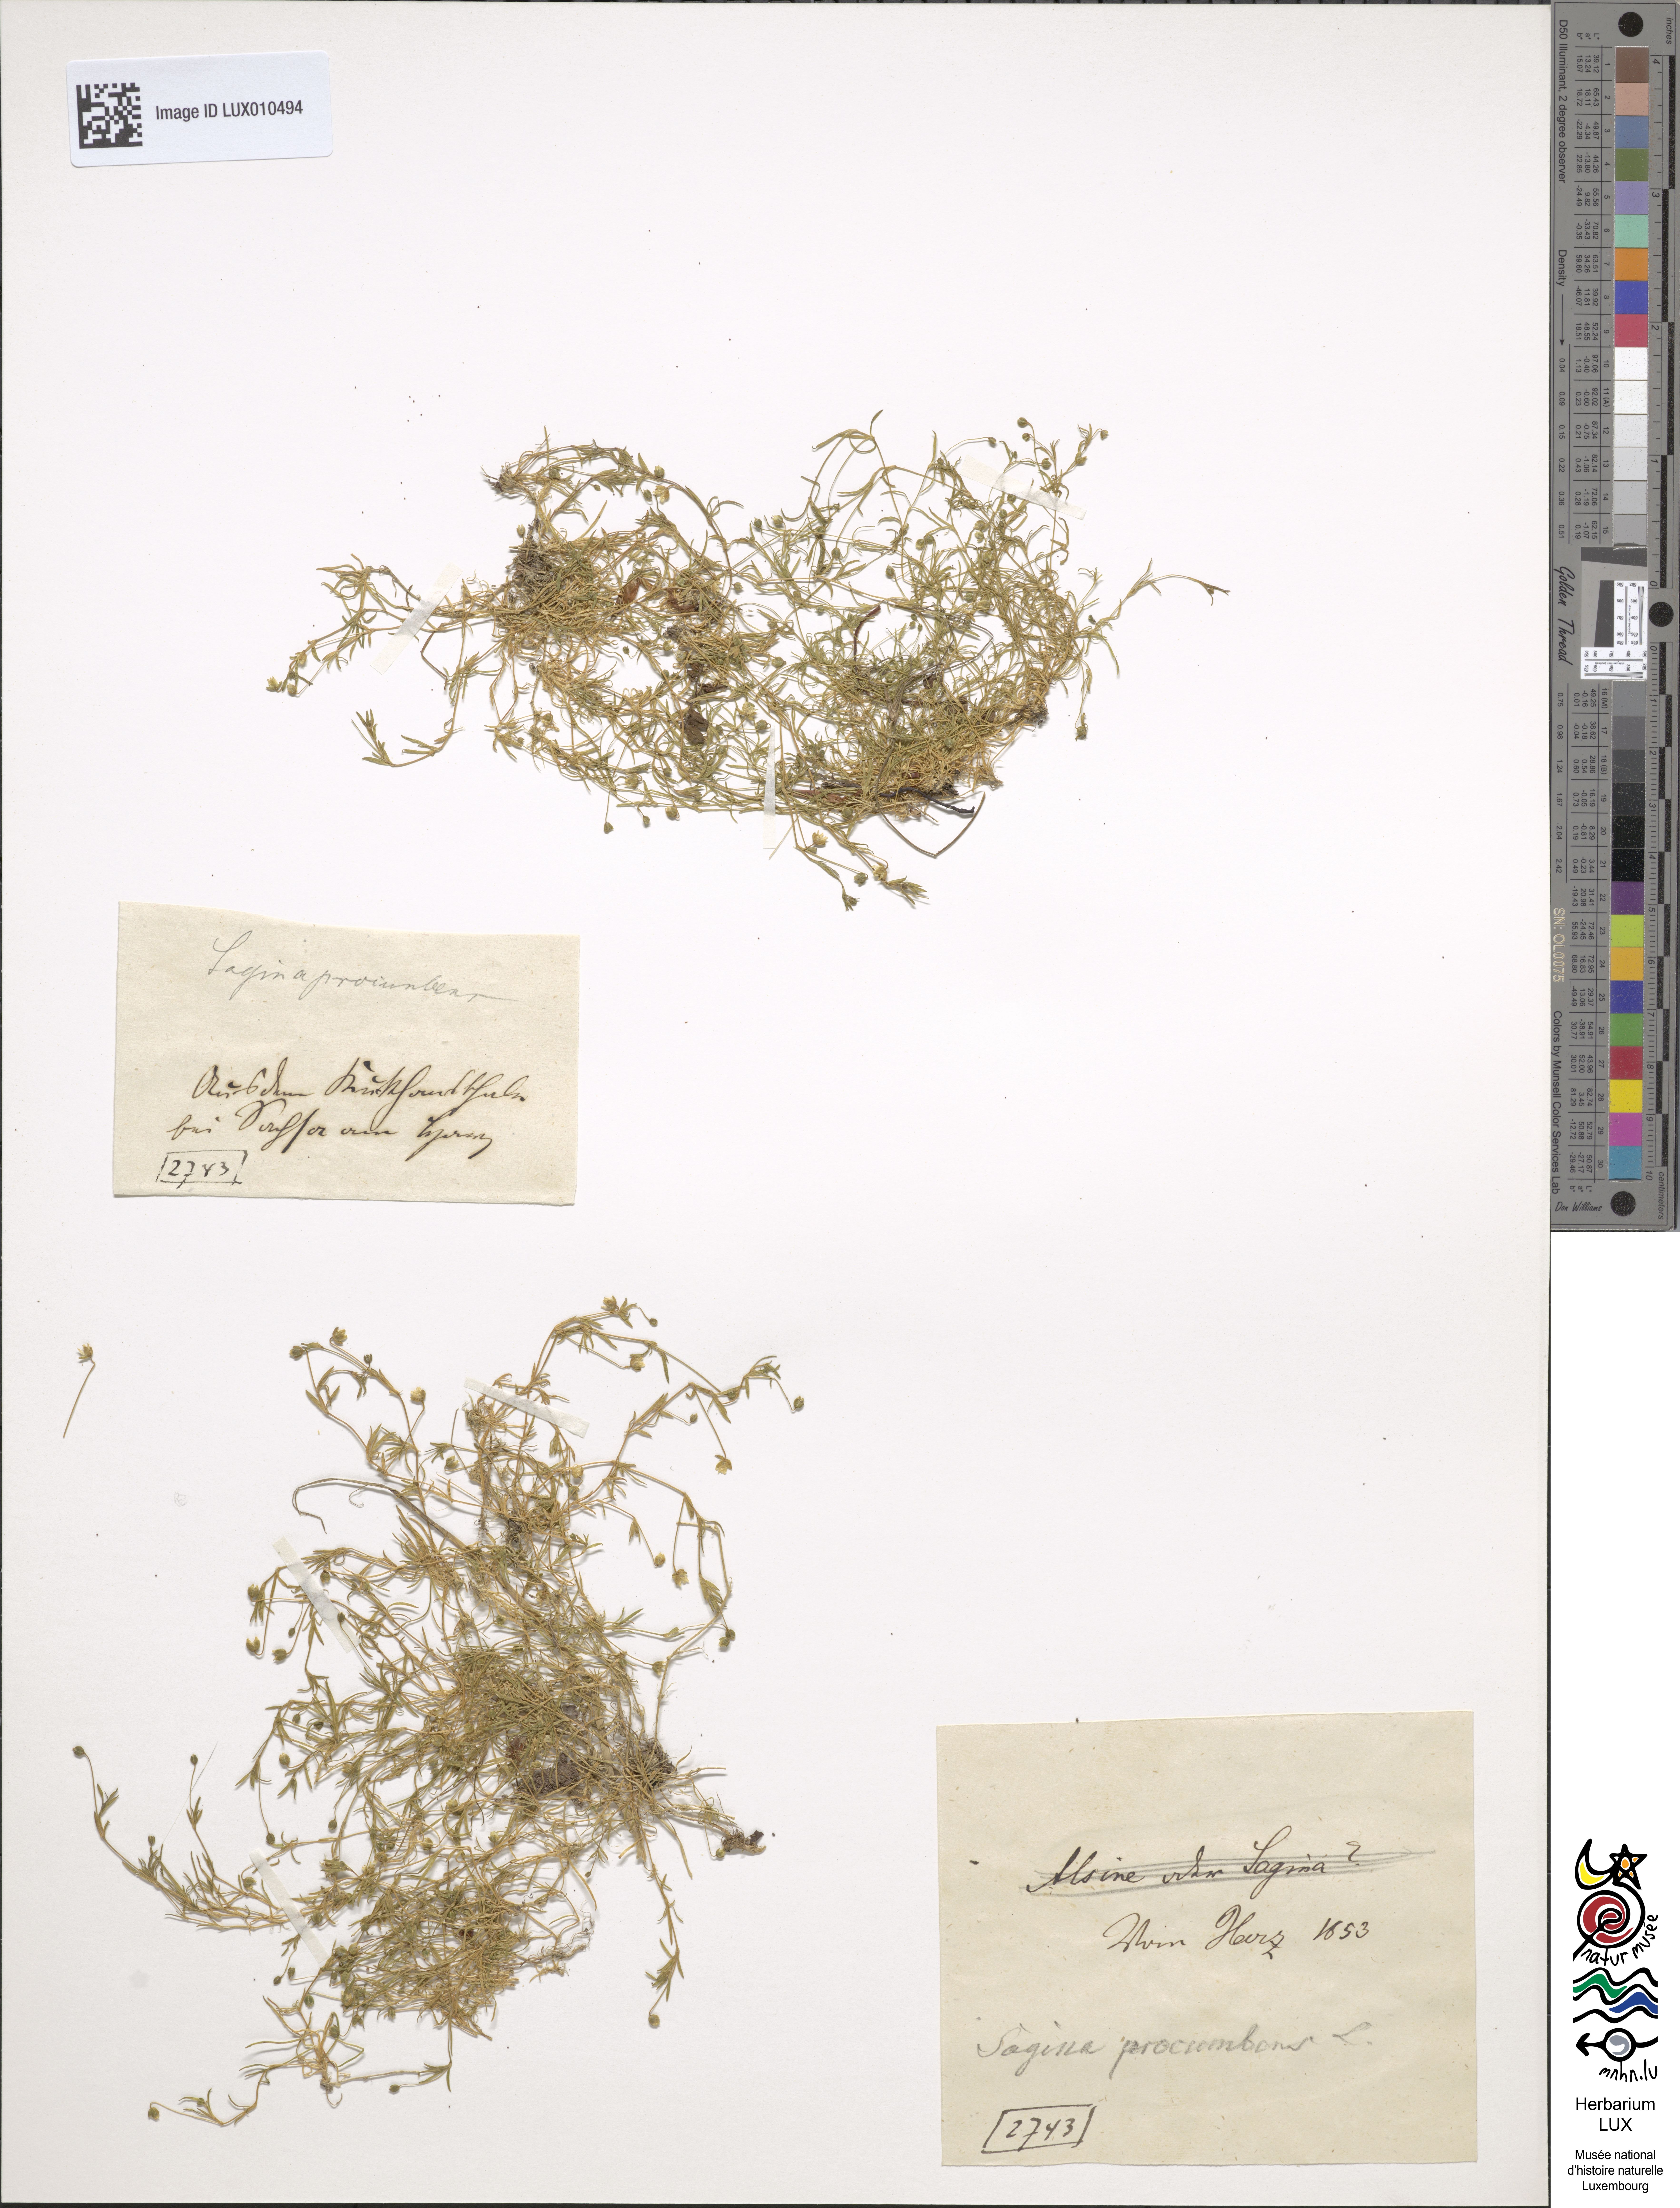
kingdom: Plantae
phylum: Tracheophyta
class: Magnoliopsida
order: Caryophyllales
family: Caryophyllaceae
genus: Sagina
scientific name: Sagina procumbens
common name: Procumbent pearlwort
